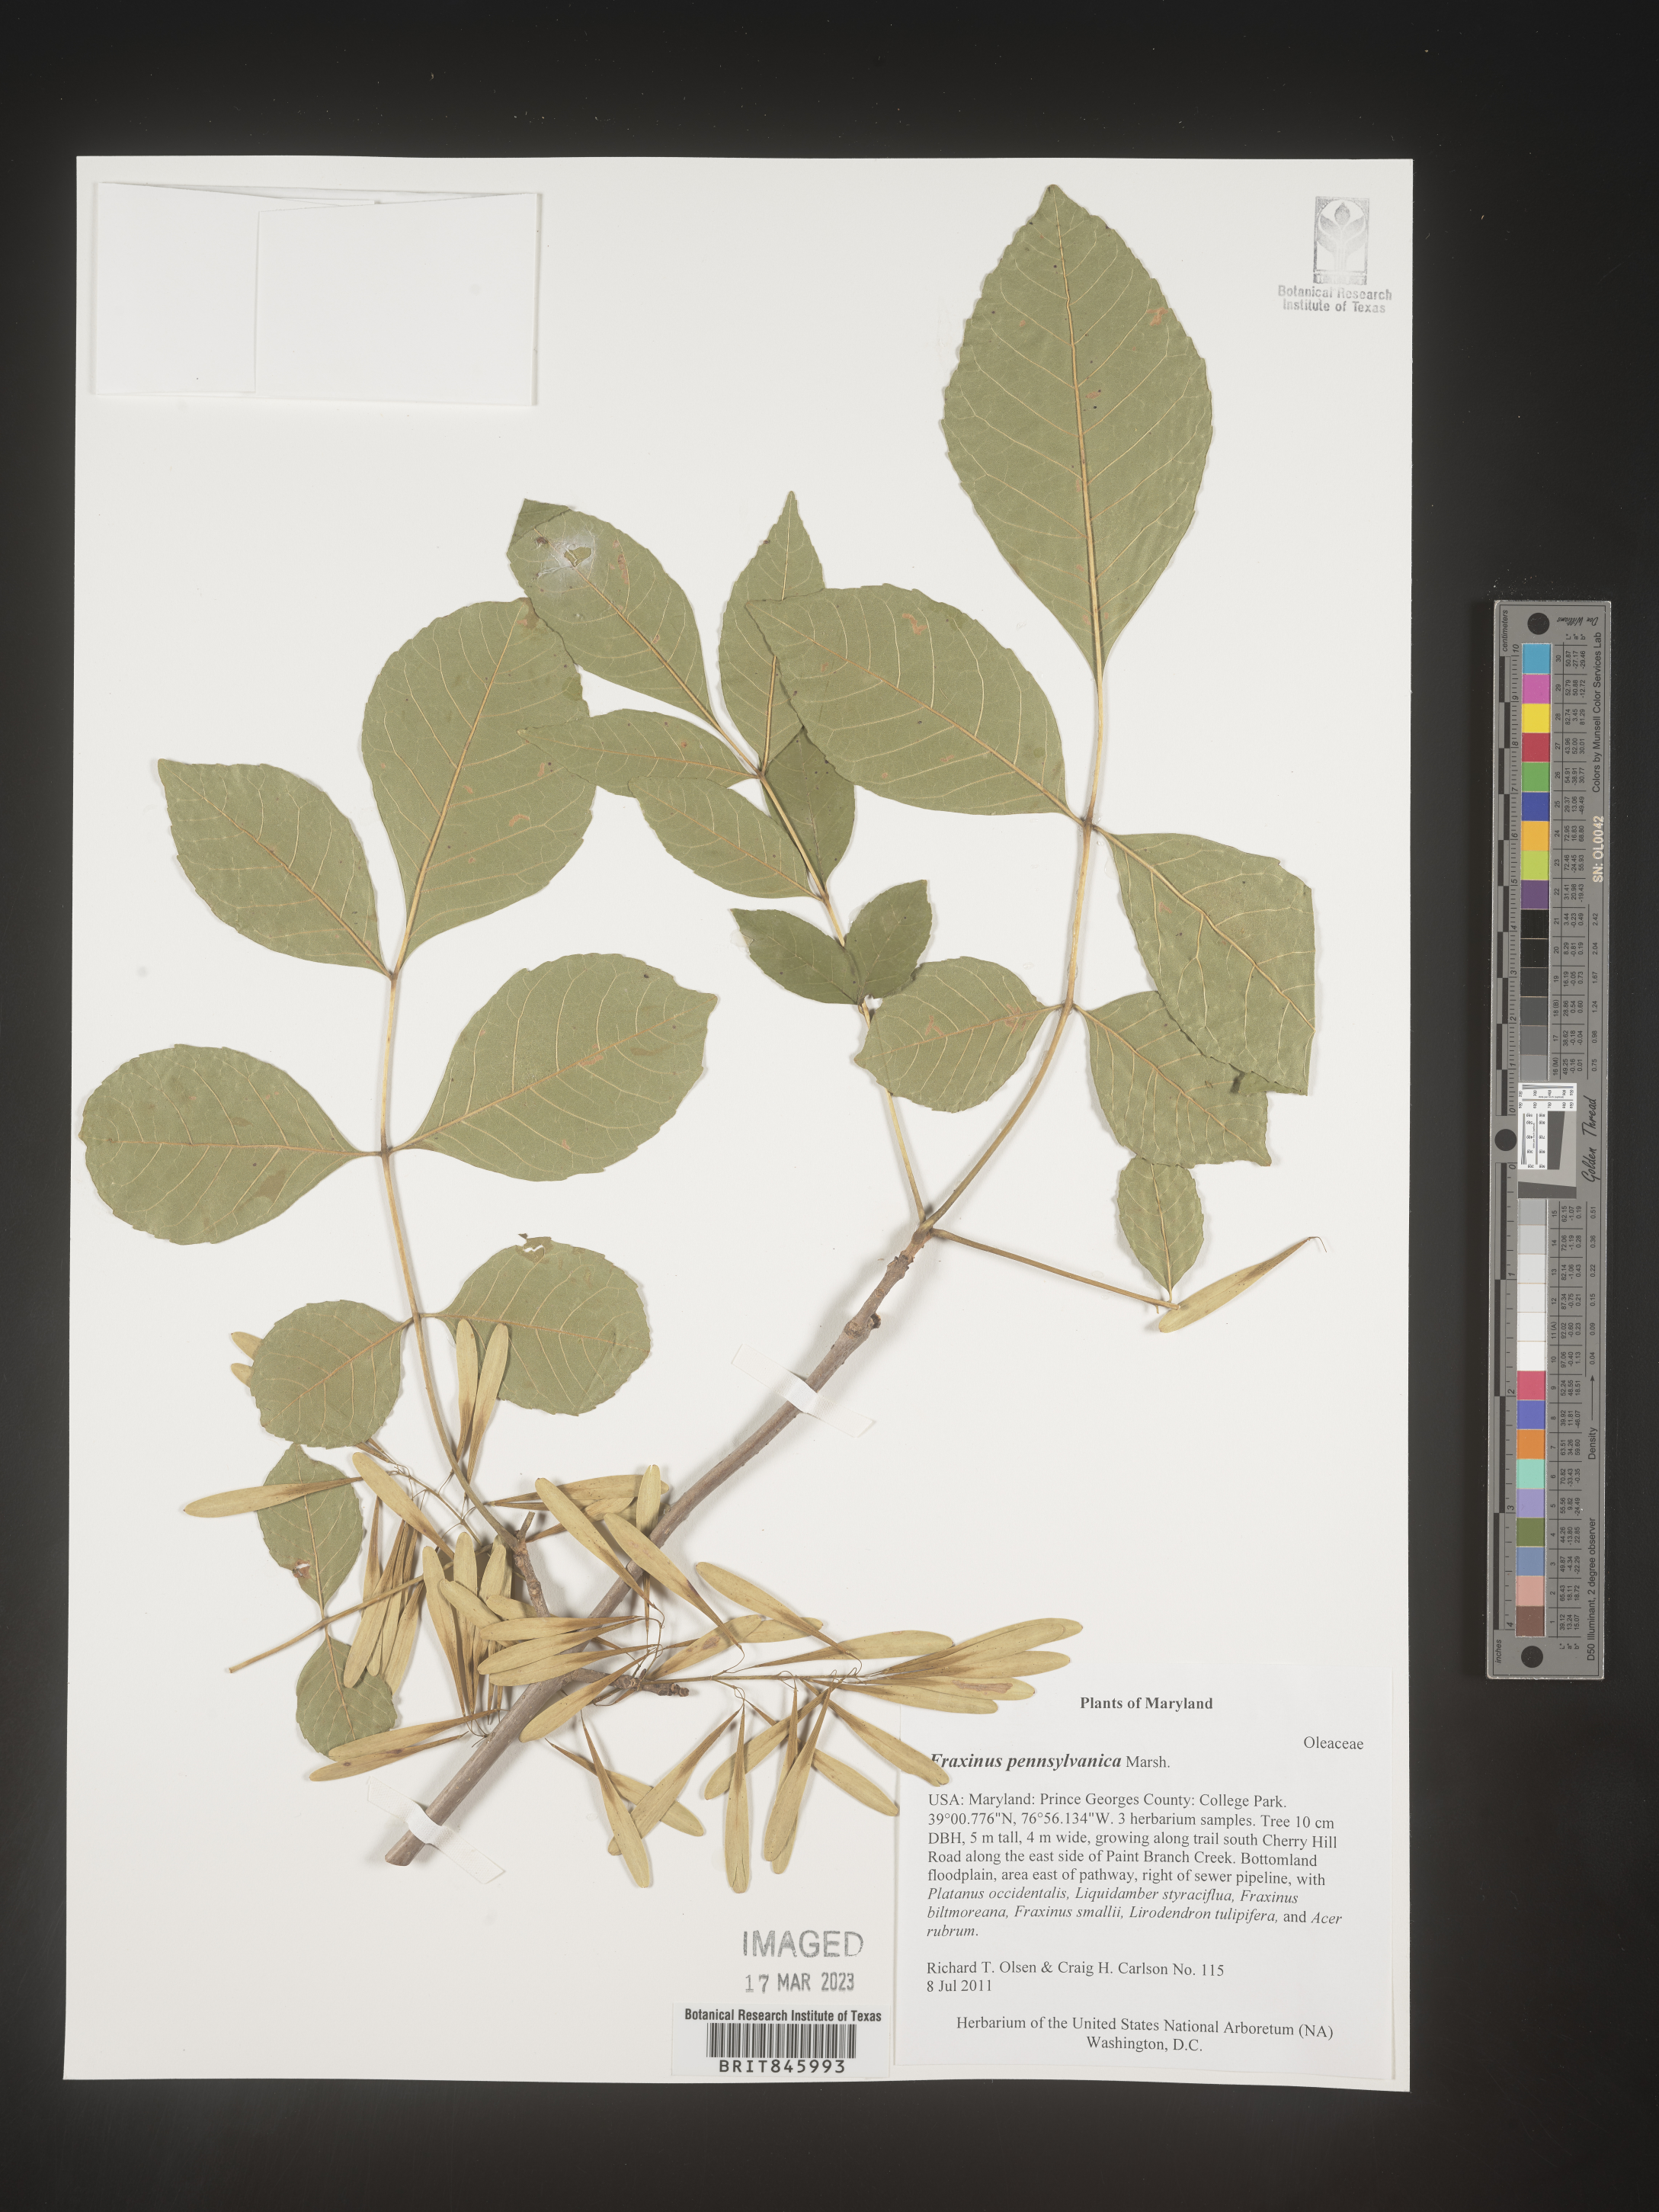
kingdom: Plantae
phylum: Tracheophyta
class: Magnoliopsida
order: Lamiales
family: Oleaceae
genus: Fraxinus
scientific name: Fraxinus nigra
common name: Black ash
